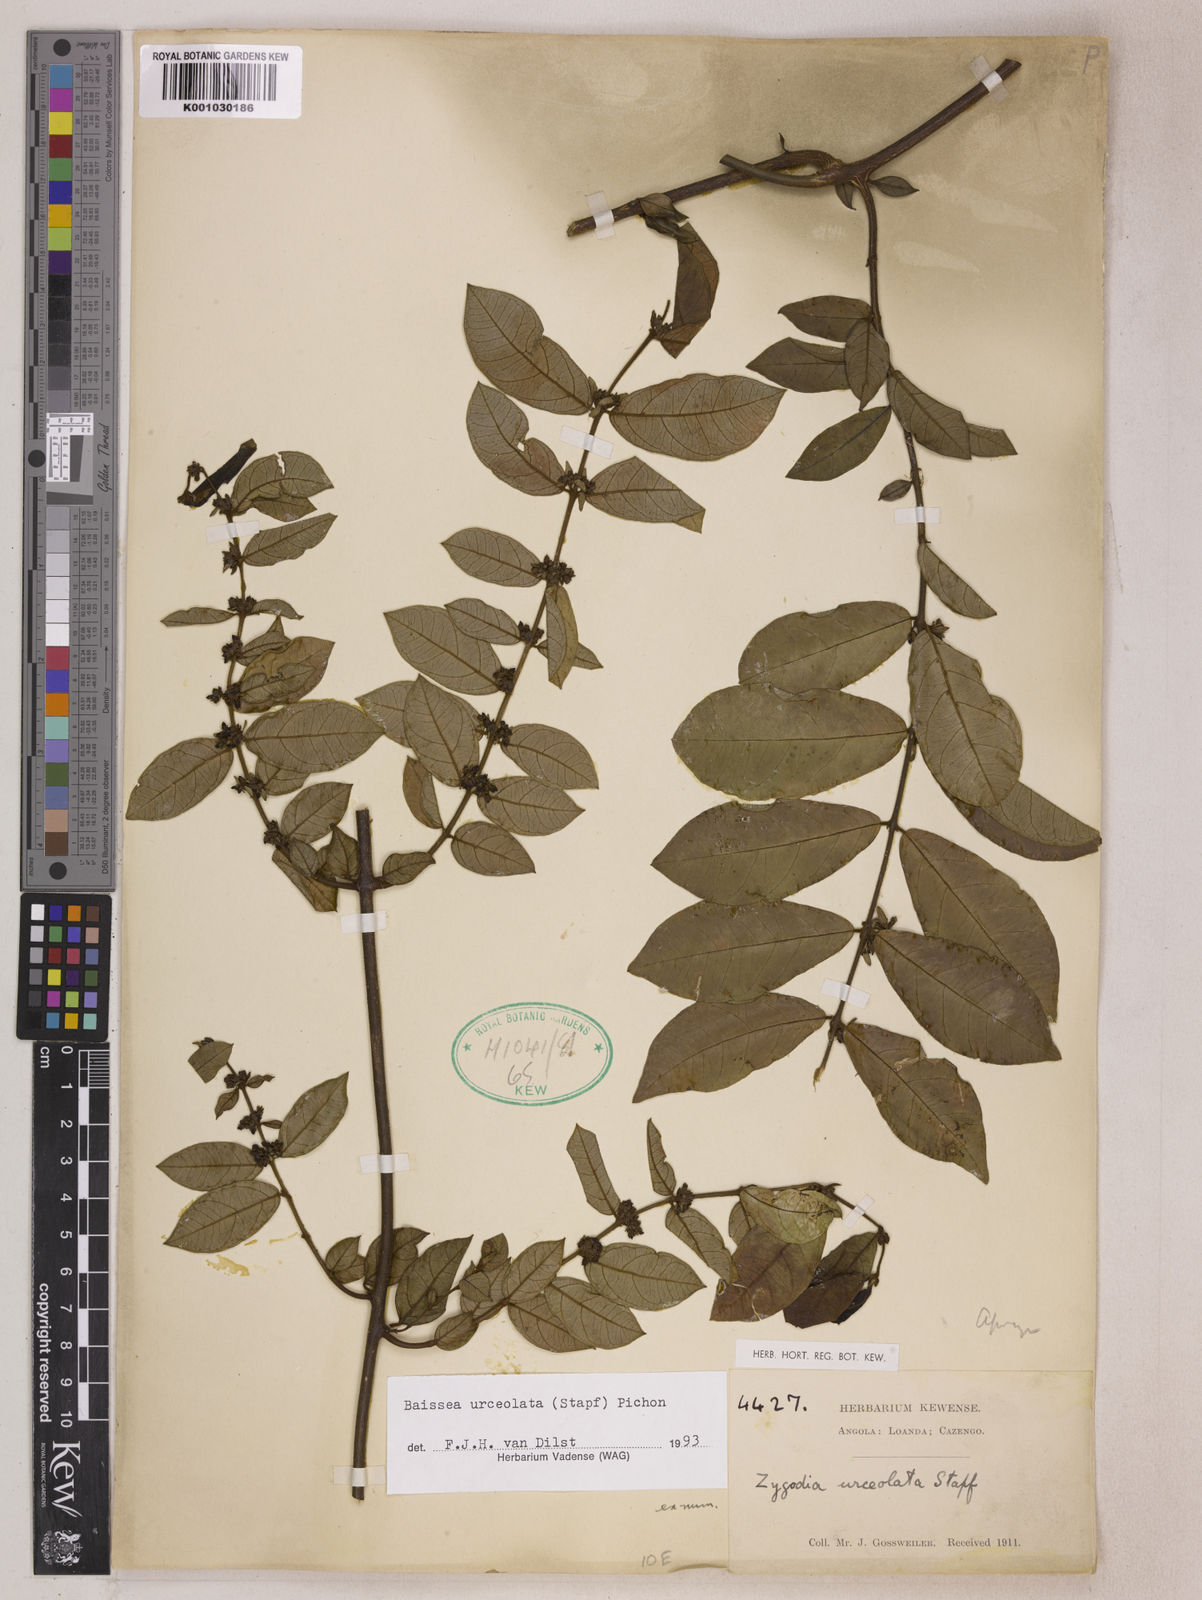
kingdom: Plantae
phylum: Tracheophyta
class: Magnoliopsida
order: Gentianales
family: Apocynaceae
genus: Baissea
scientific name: Baissea myrtifolia
